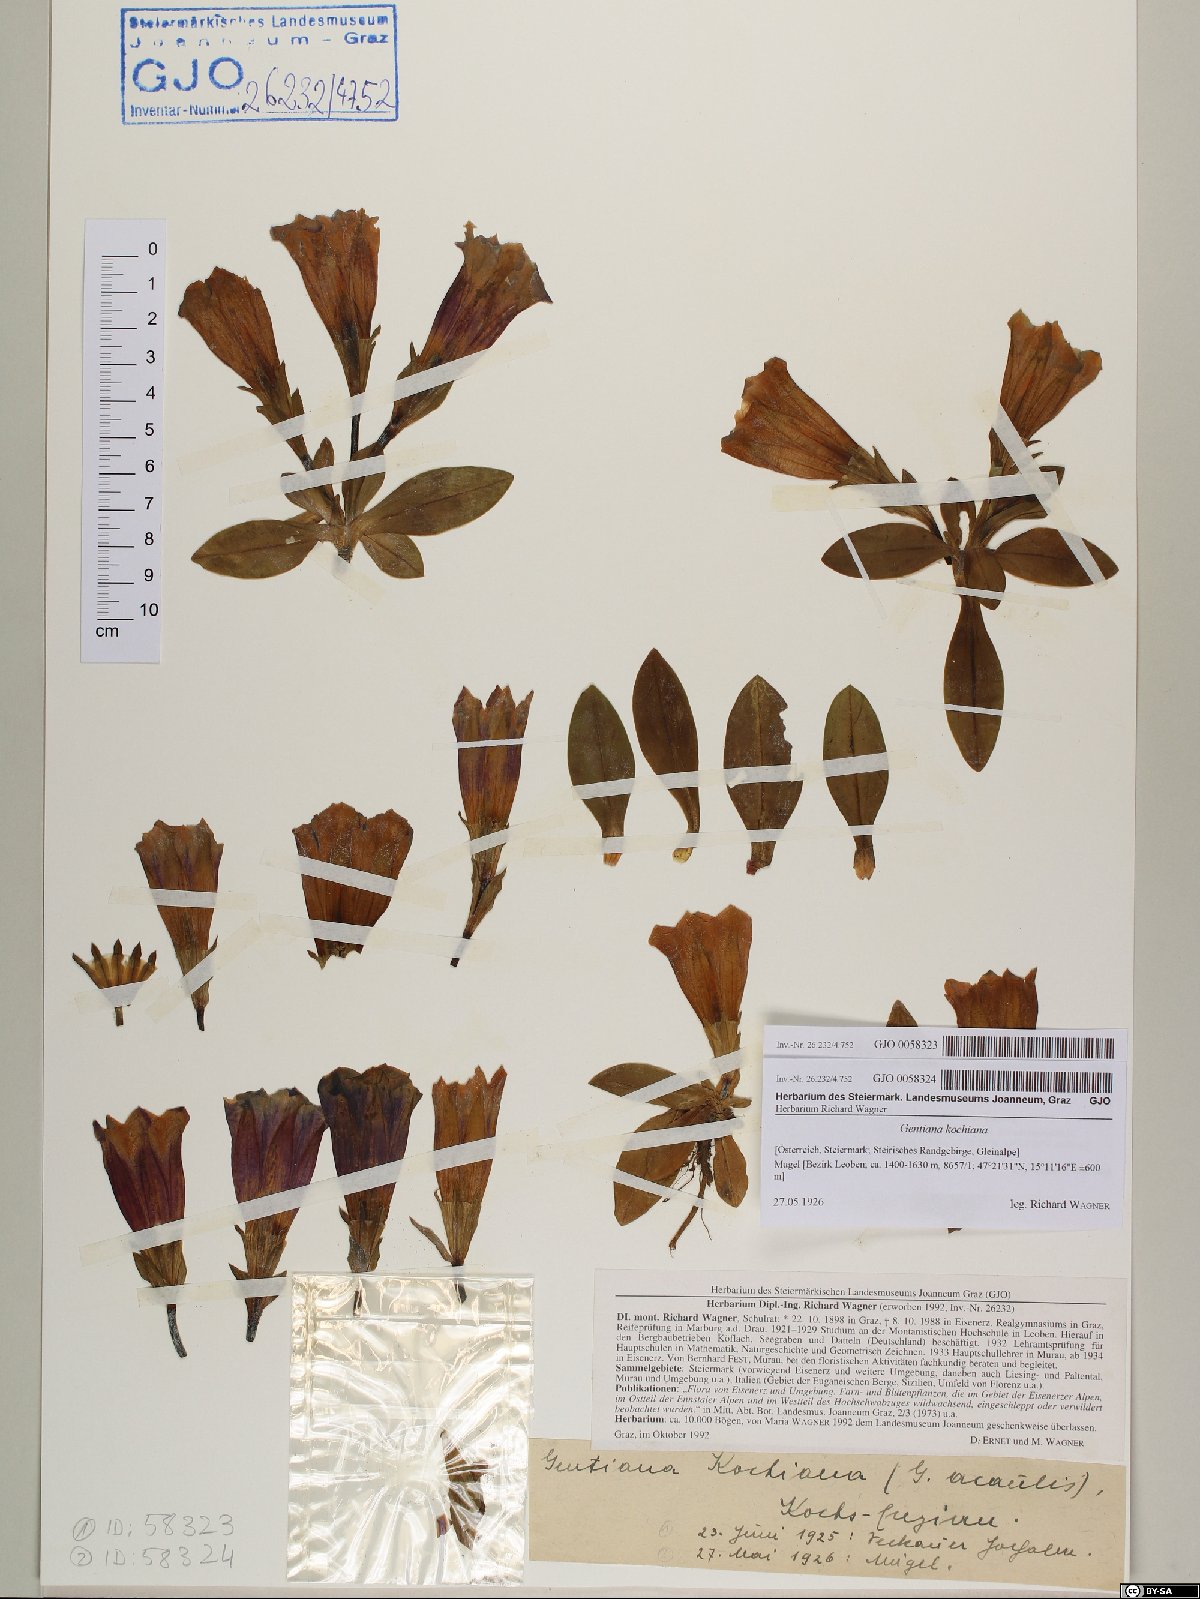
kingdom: Plantae
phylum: Tracheophyta
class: Magnoliopsida
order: Gentianales
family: Gentianaceae
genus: Gentiana
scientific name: Gentiana acaulis
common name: Trumpet gentian
